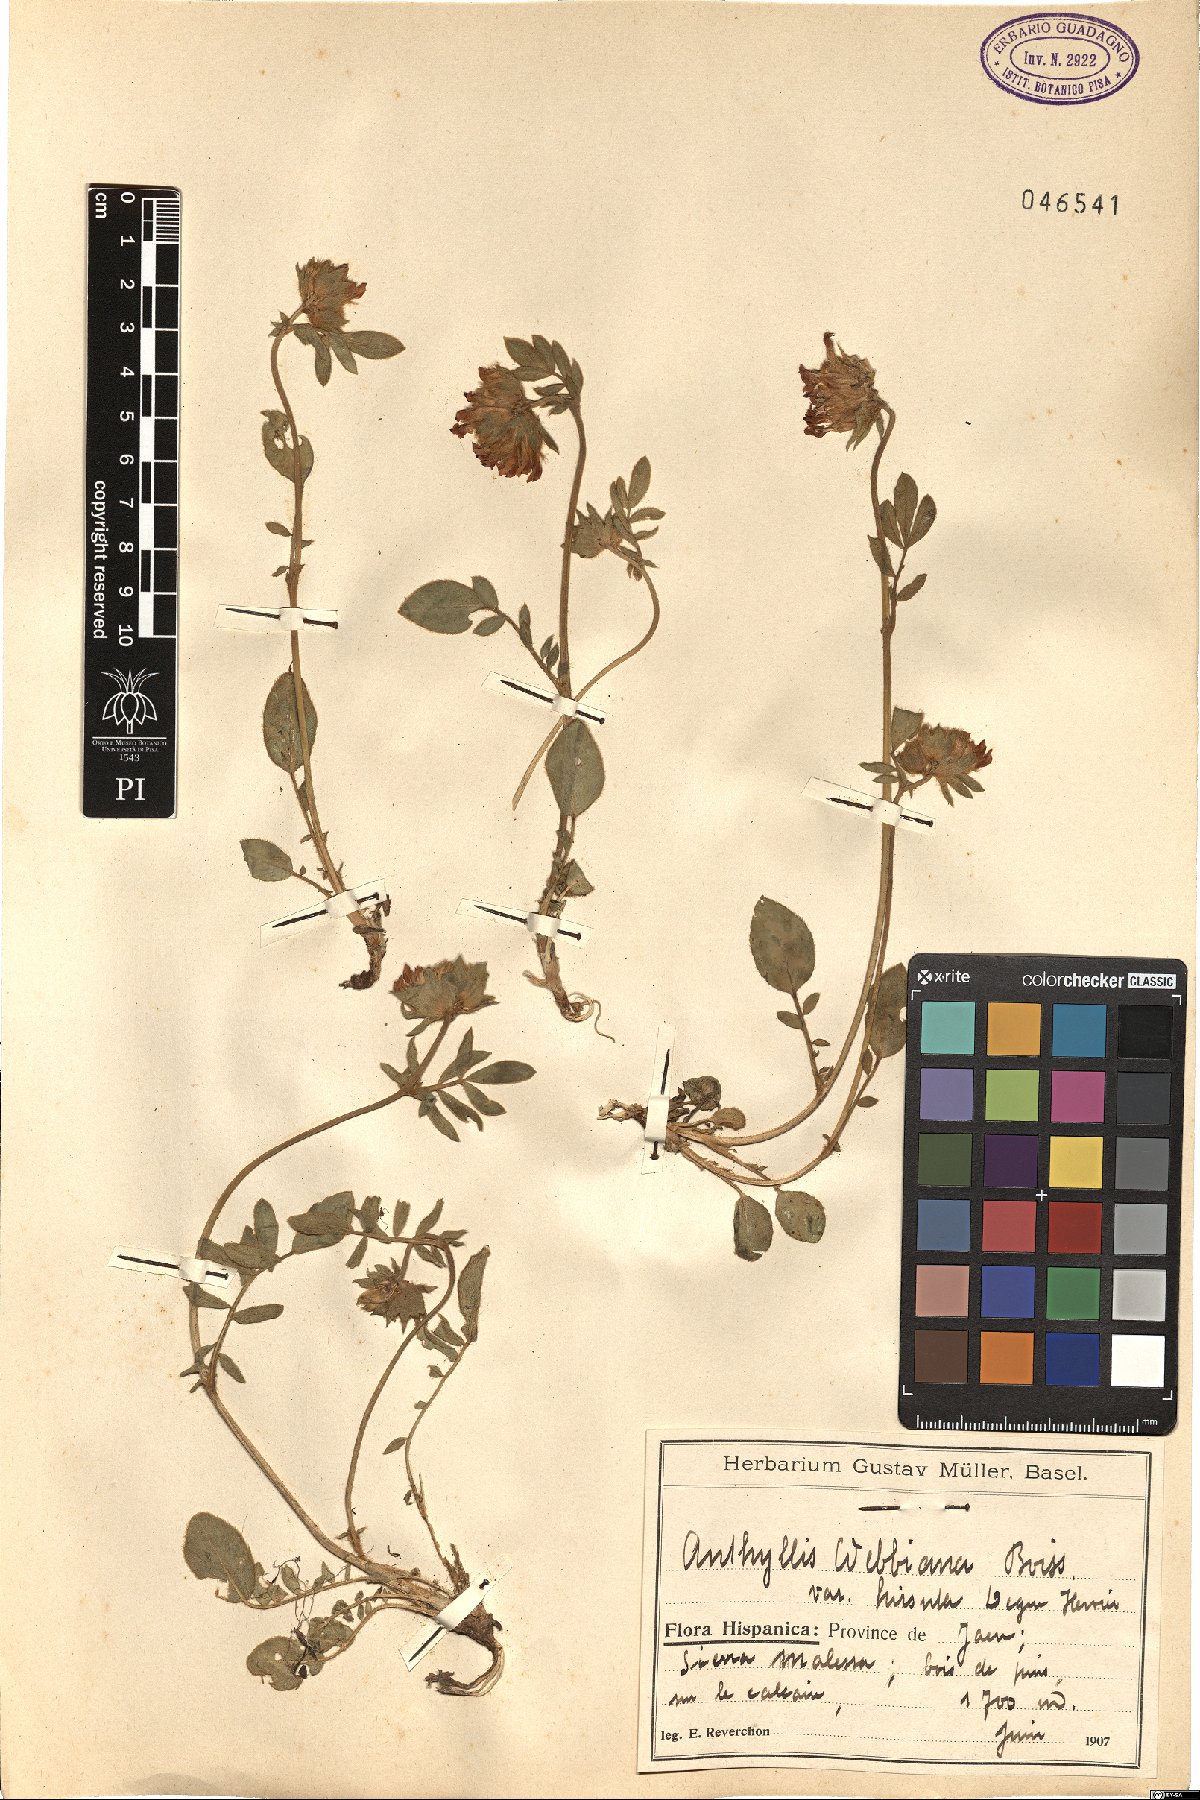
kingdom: Plantae
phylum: Tracheophyta
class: Magnoliopsida
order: Fabales
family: Fabaceae
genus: Anthyllis
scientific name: Anthyllis vulneraria
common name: Kidney vetch
